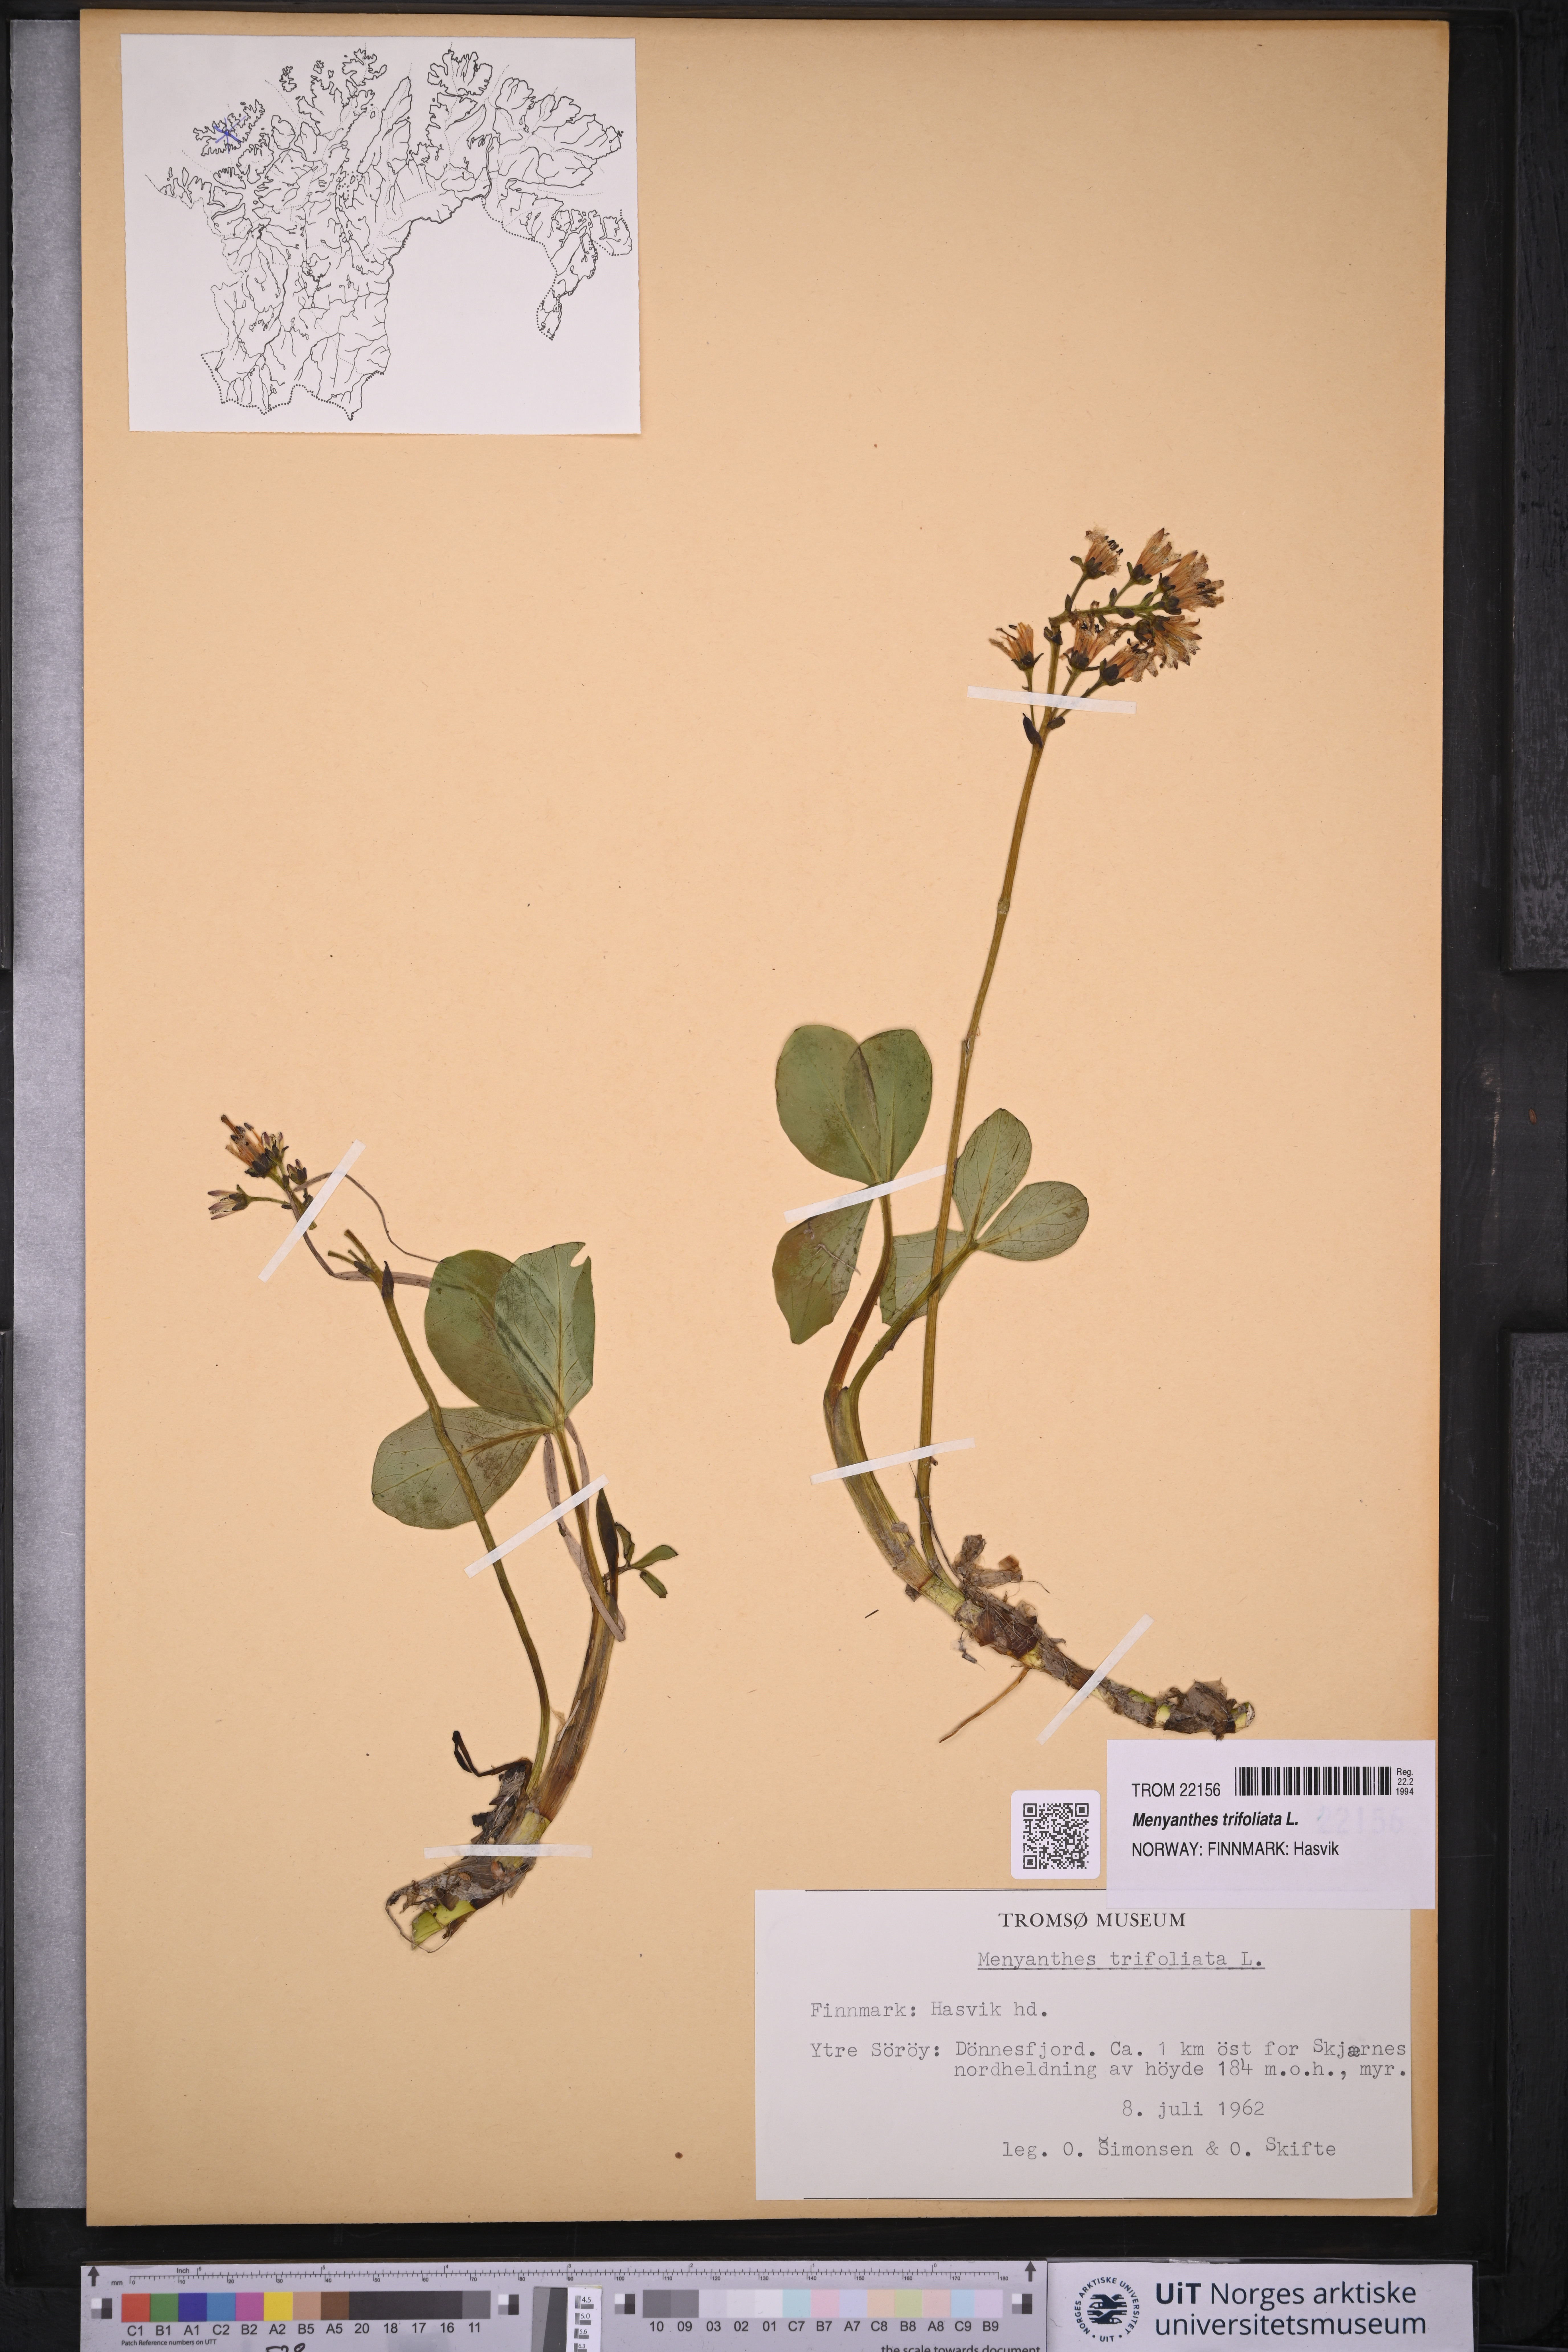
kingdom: Plantae
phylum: Tracheophyta
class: Magnoliopsida
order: Asterales
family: Menyanthaceae
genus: Menyanthes
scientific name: Menyanthes trifoliata
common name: Bogbean
